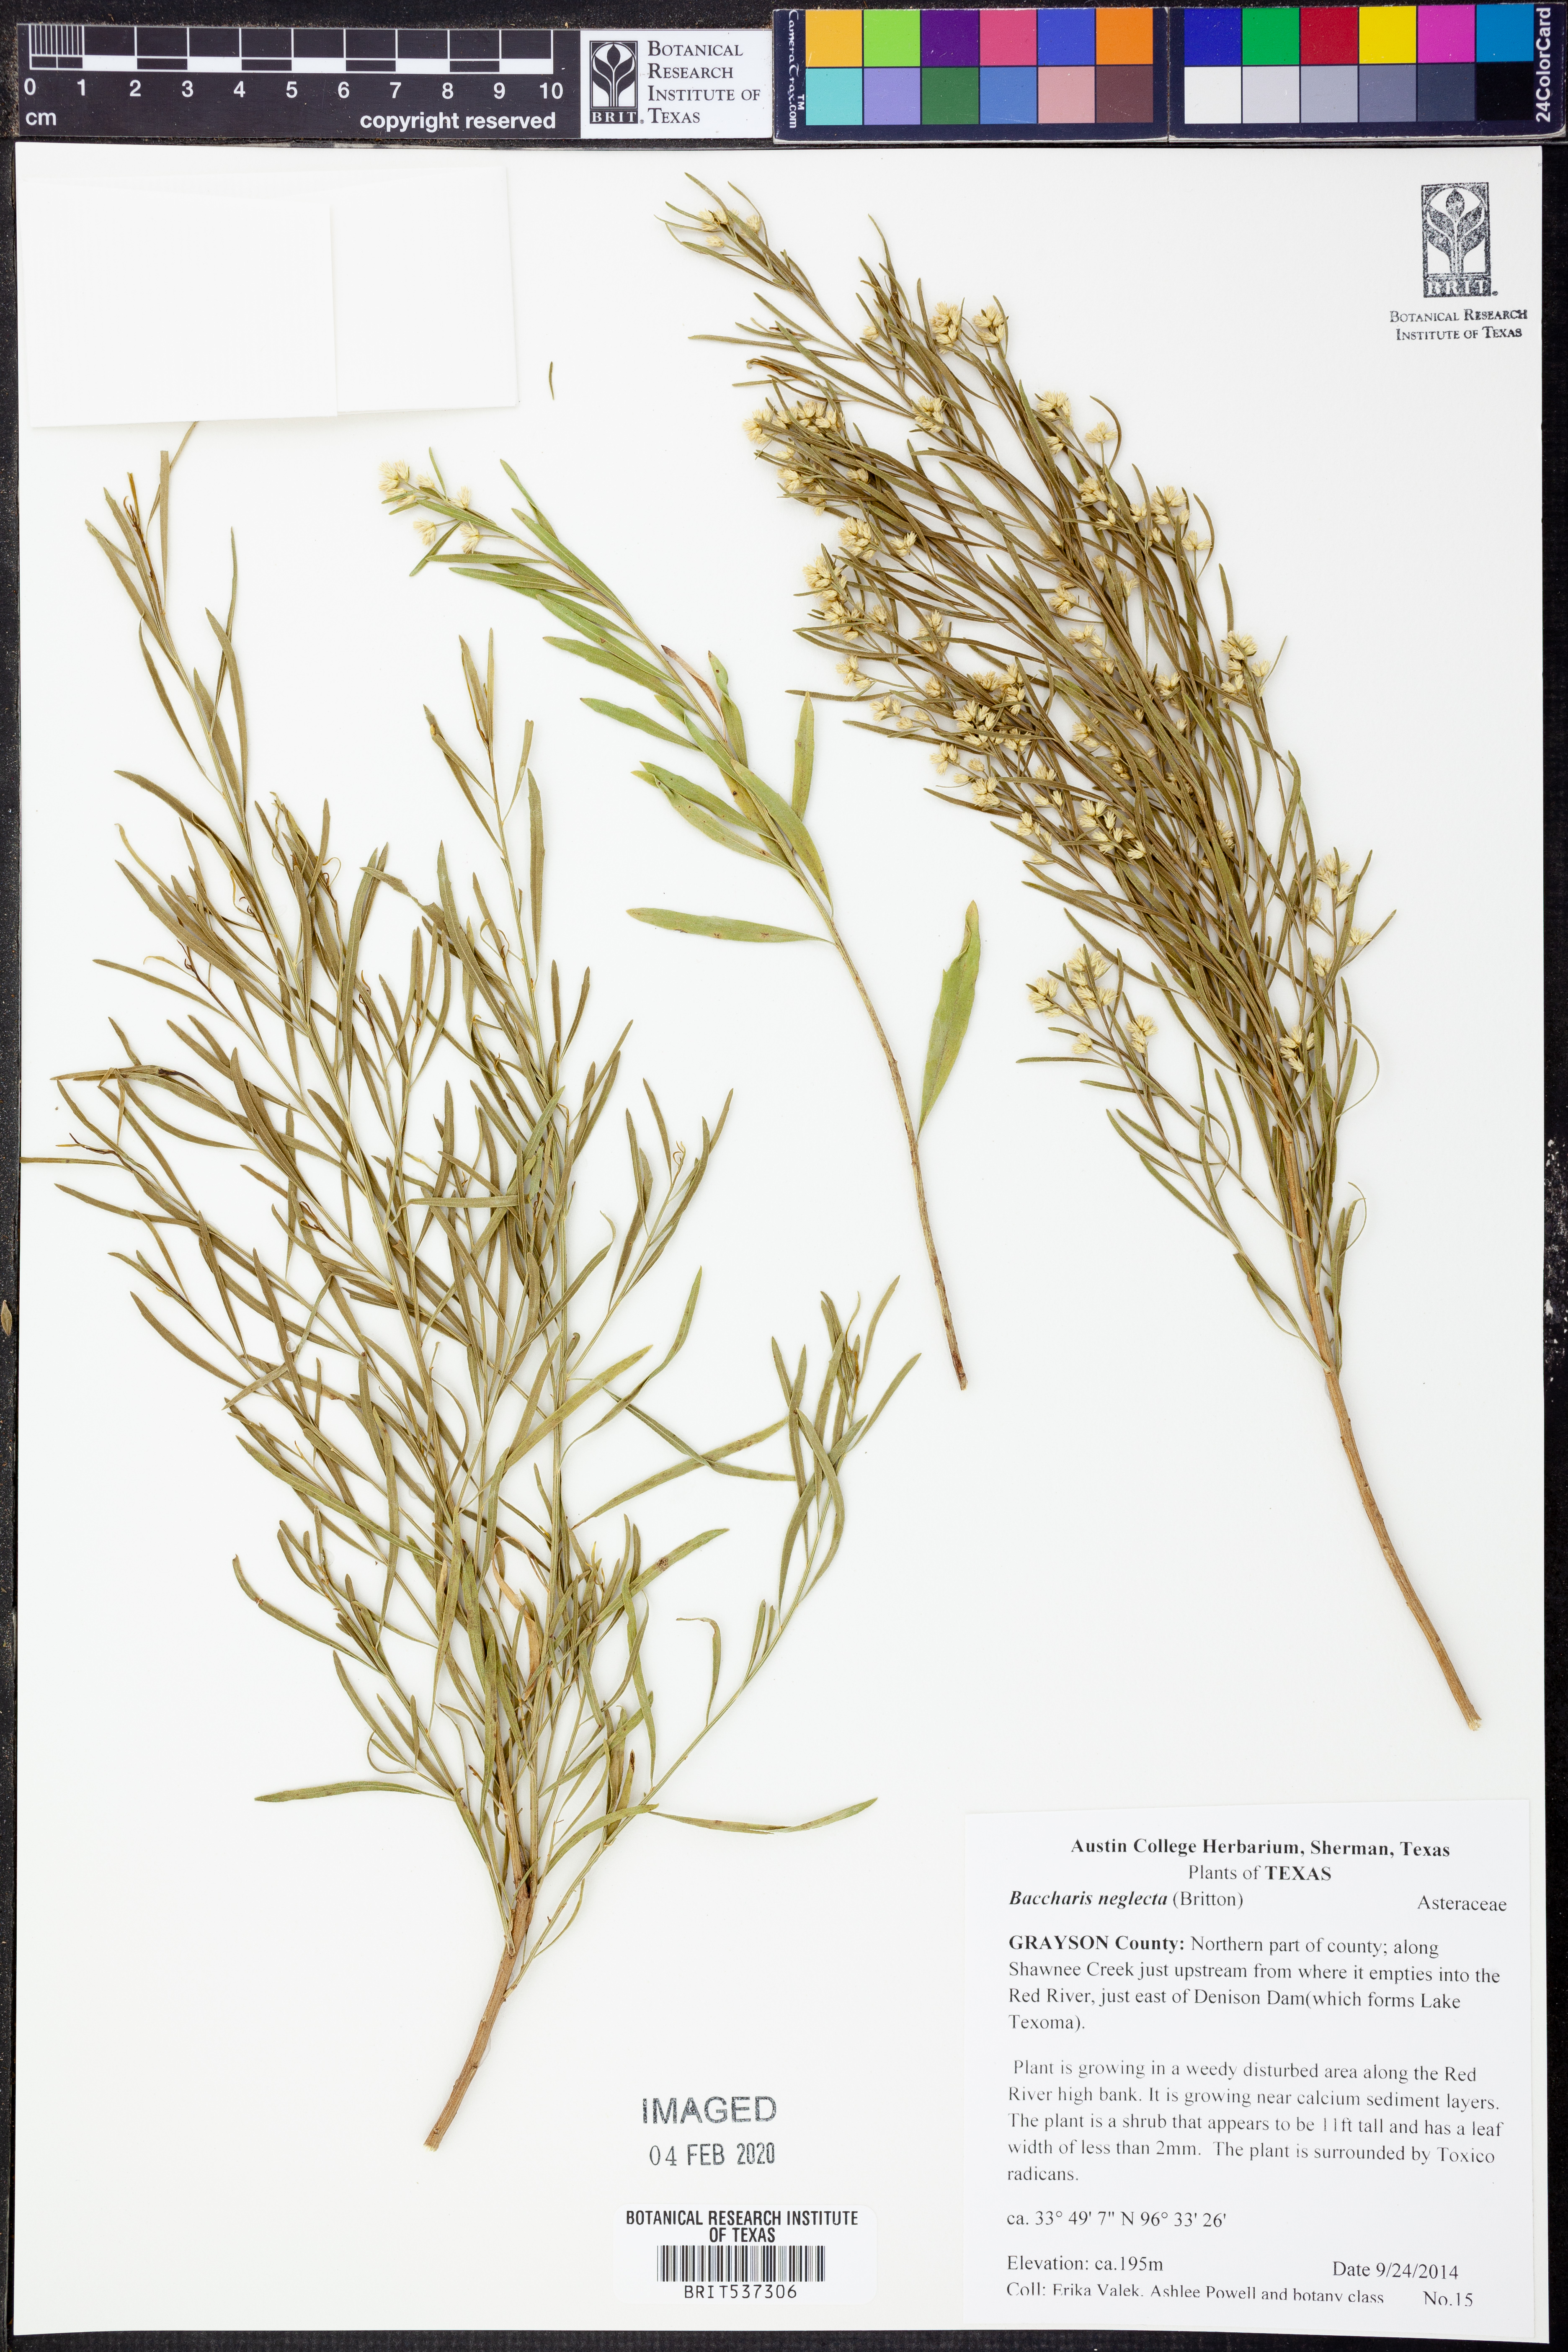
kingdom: Plantae
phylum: Tracheophyta
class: Magnoliopsida
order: Asterales
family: Asteraceae
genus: Baccharis
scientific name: Baccharis neglecta
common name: Roosevelt-weed
